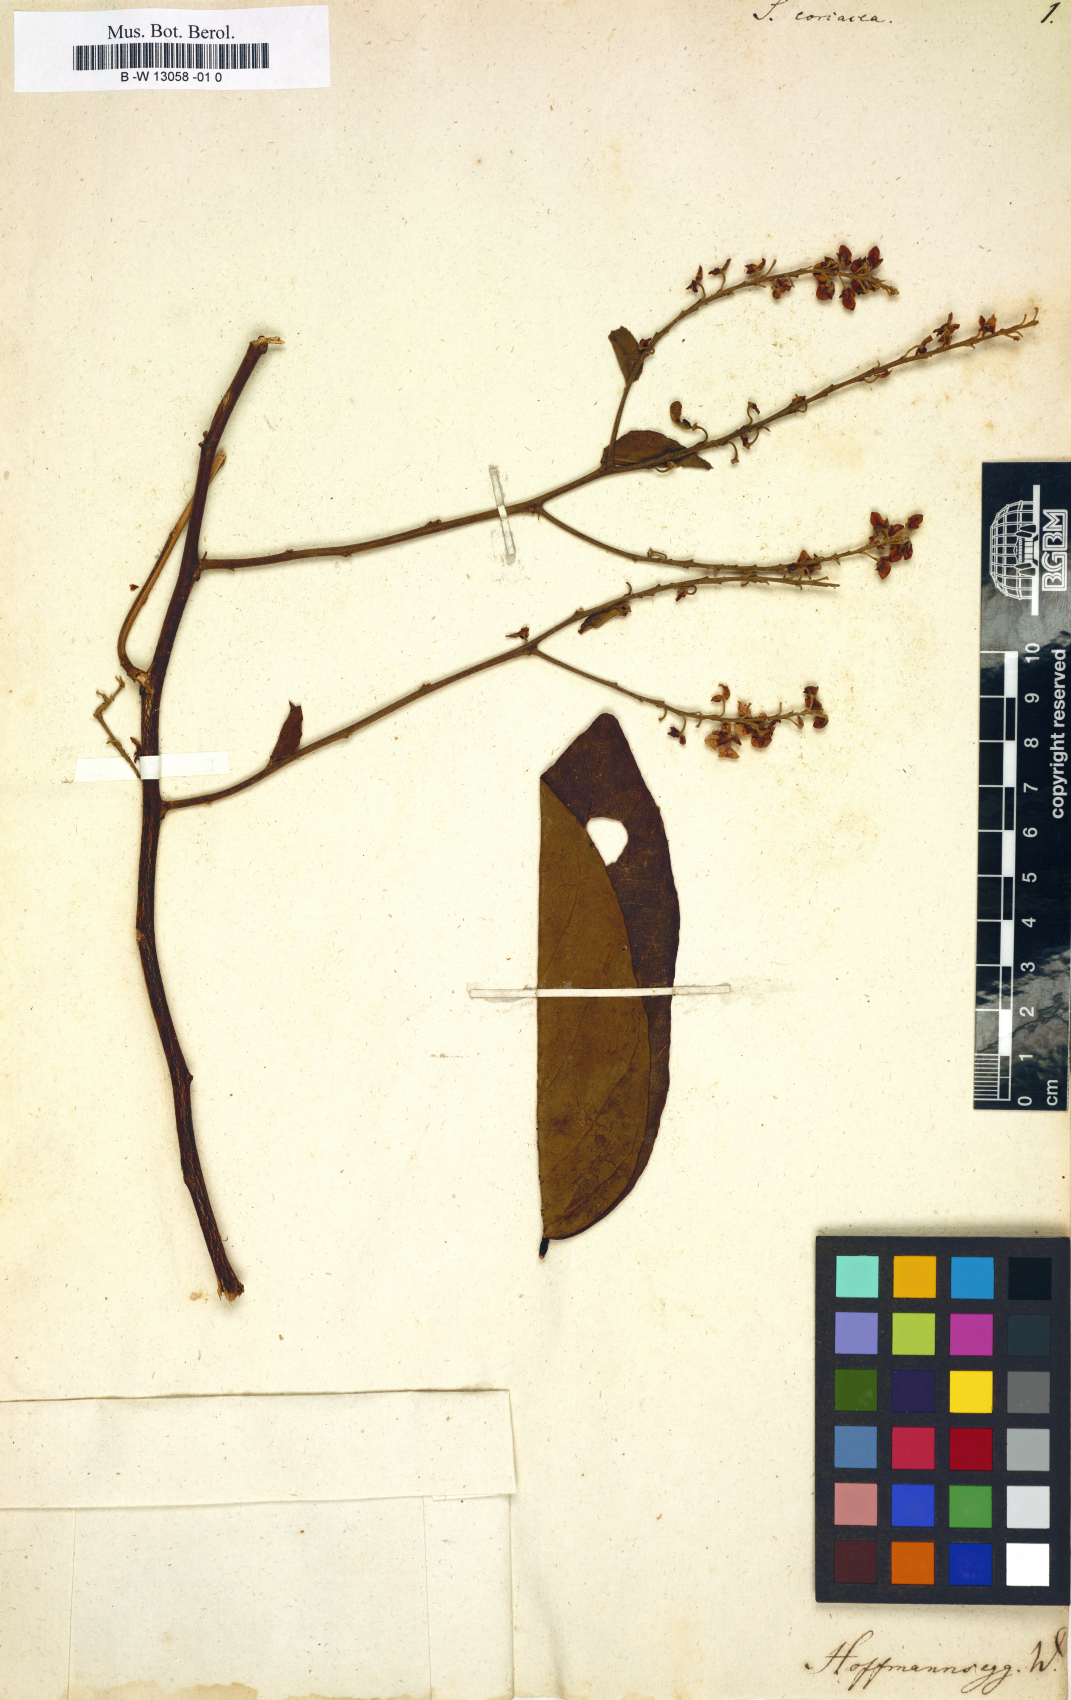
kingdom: Plantae
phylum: Tracheophyta
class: Magnoliopsida
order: Fabales
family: Polygalaceae
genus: Securidaca
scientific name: Securidaca coriacea
